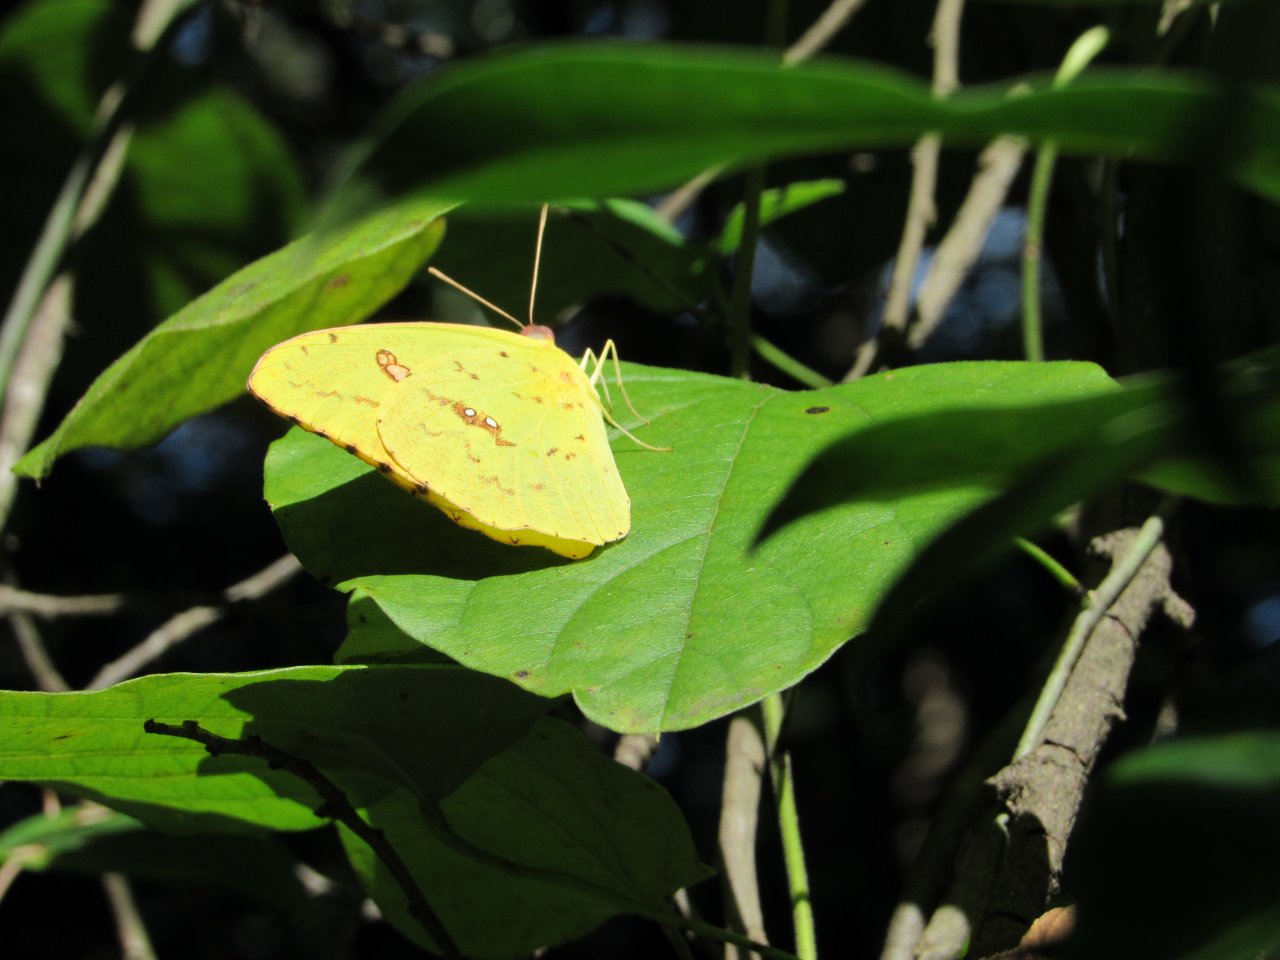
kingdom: Animalia
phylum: Arthropoda
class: Insecta
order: Lepidoptera
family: Pieridae
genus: Phoebis
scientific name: Phoebis sennae
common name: Cloudless Sulphur
